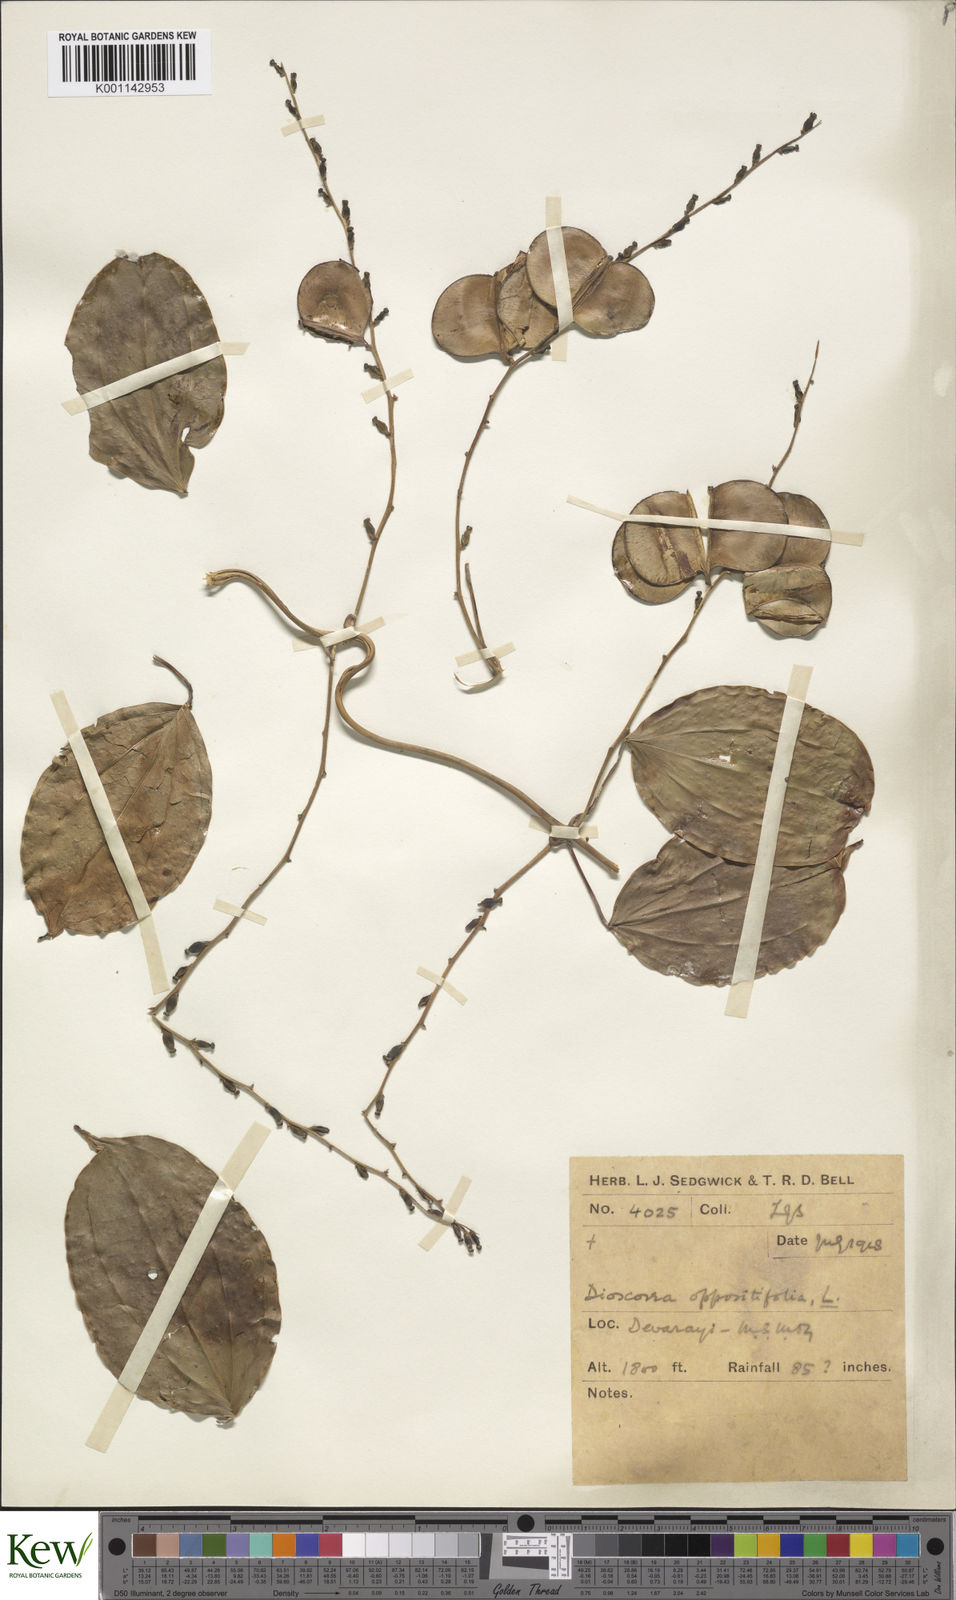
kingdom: Plantae
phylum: Tracheophyta
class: Liliopsida
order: Dioscoreales
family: Dioscoreaceae
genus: Dioscorea
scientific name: Dioscorea oppositifolia
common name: Chinese yam
